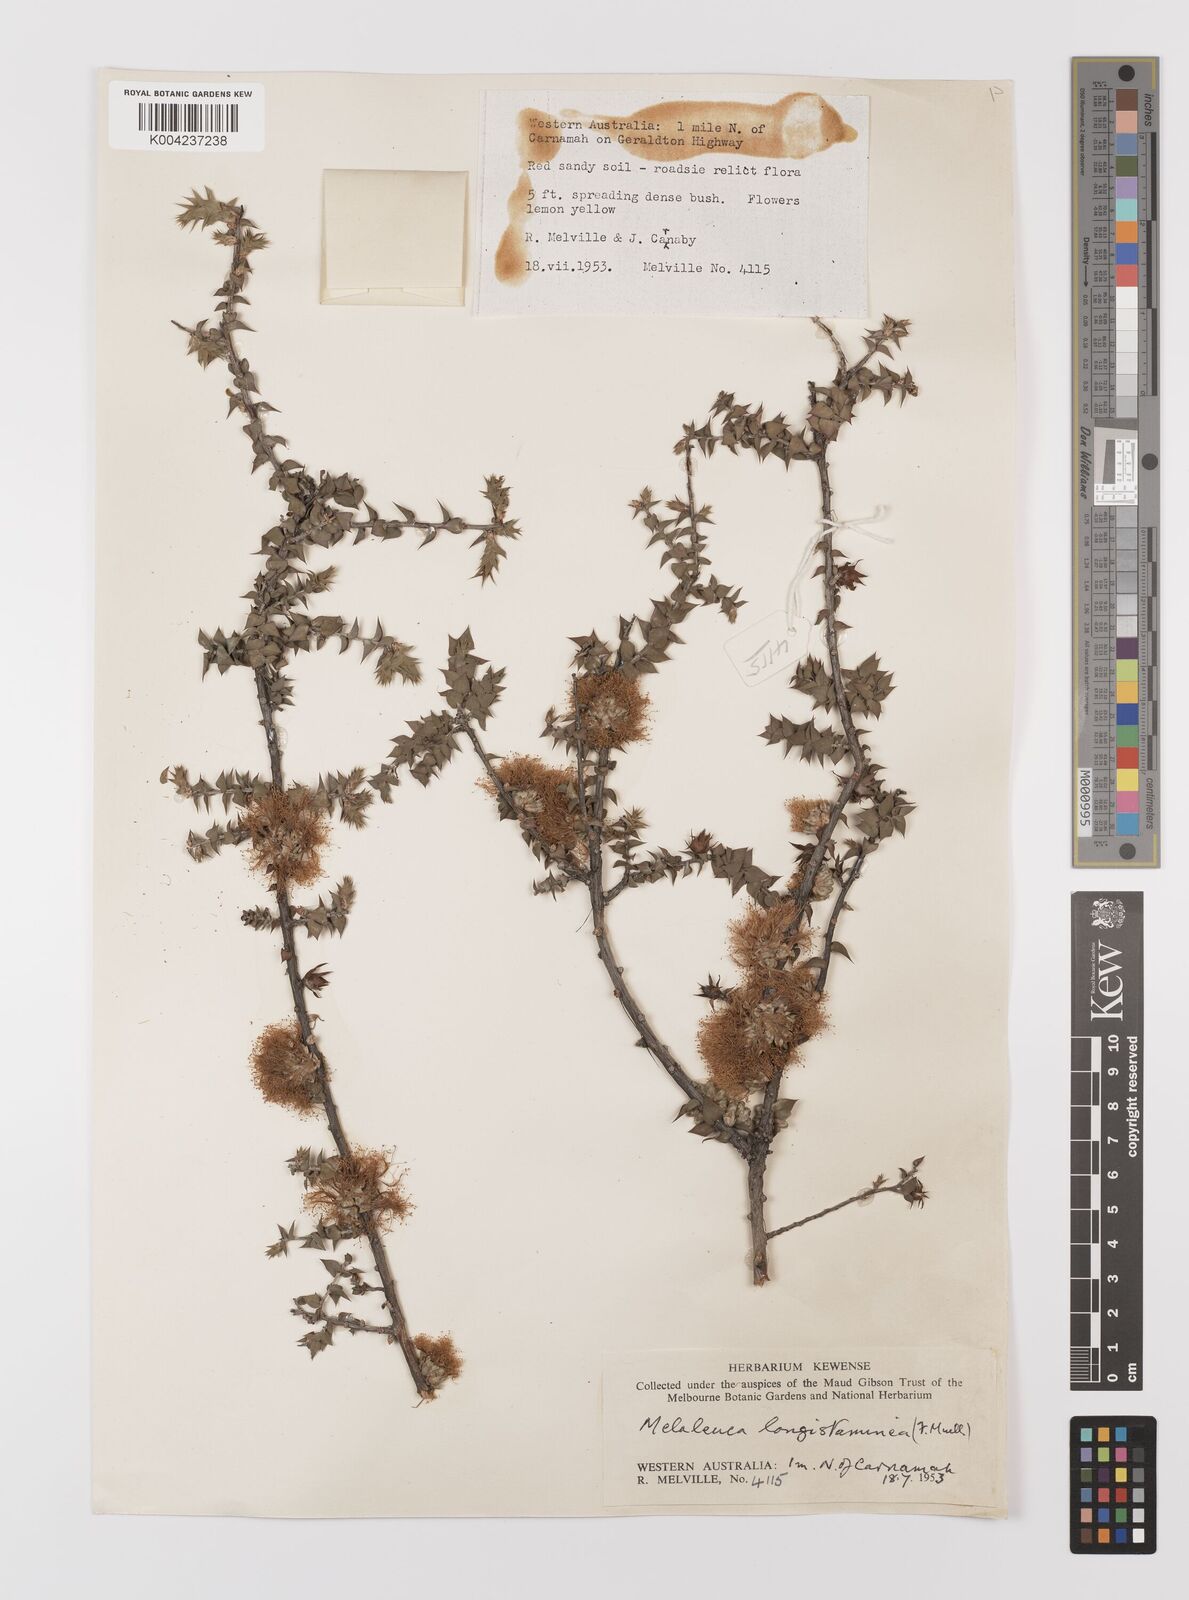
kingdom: Plantae
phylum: Tracheophyta
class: Magnoliopsida
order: Myrtales
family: Myrtaceae
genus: Melaleuca
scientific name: Melaleuca longistaminea
